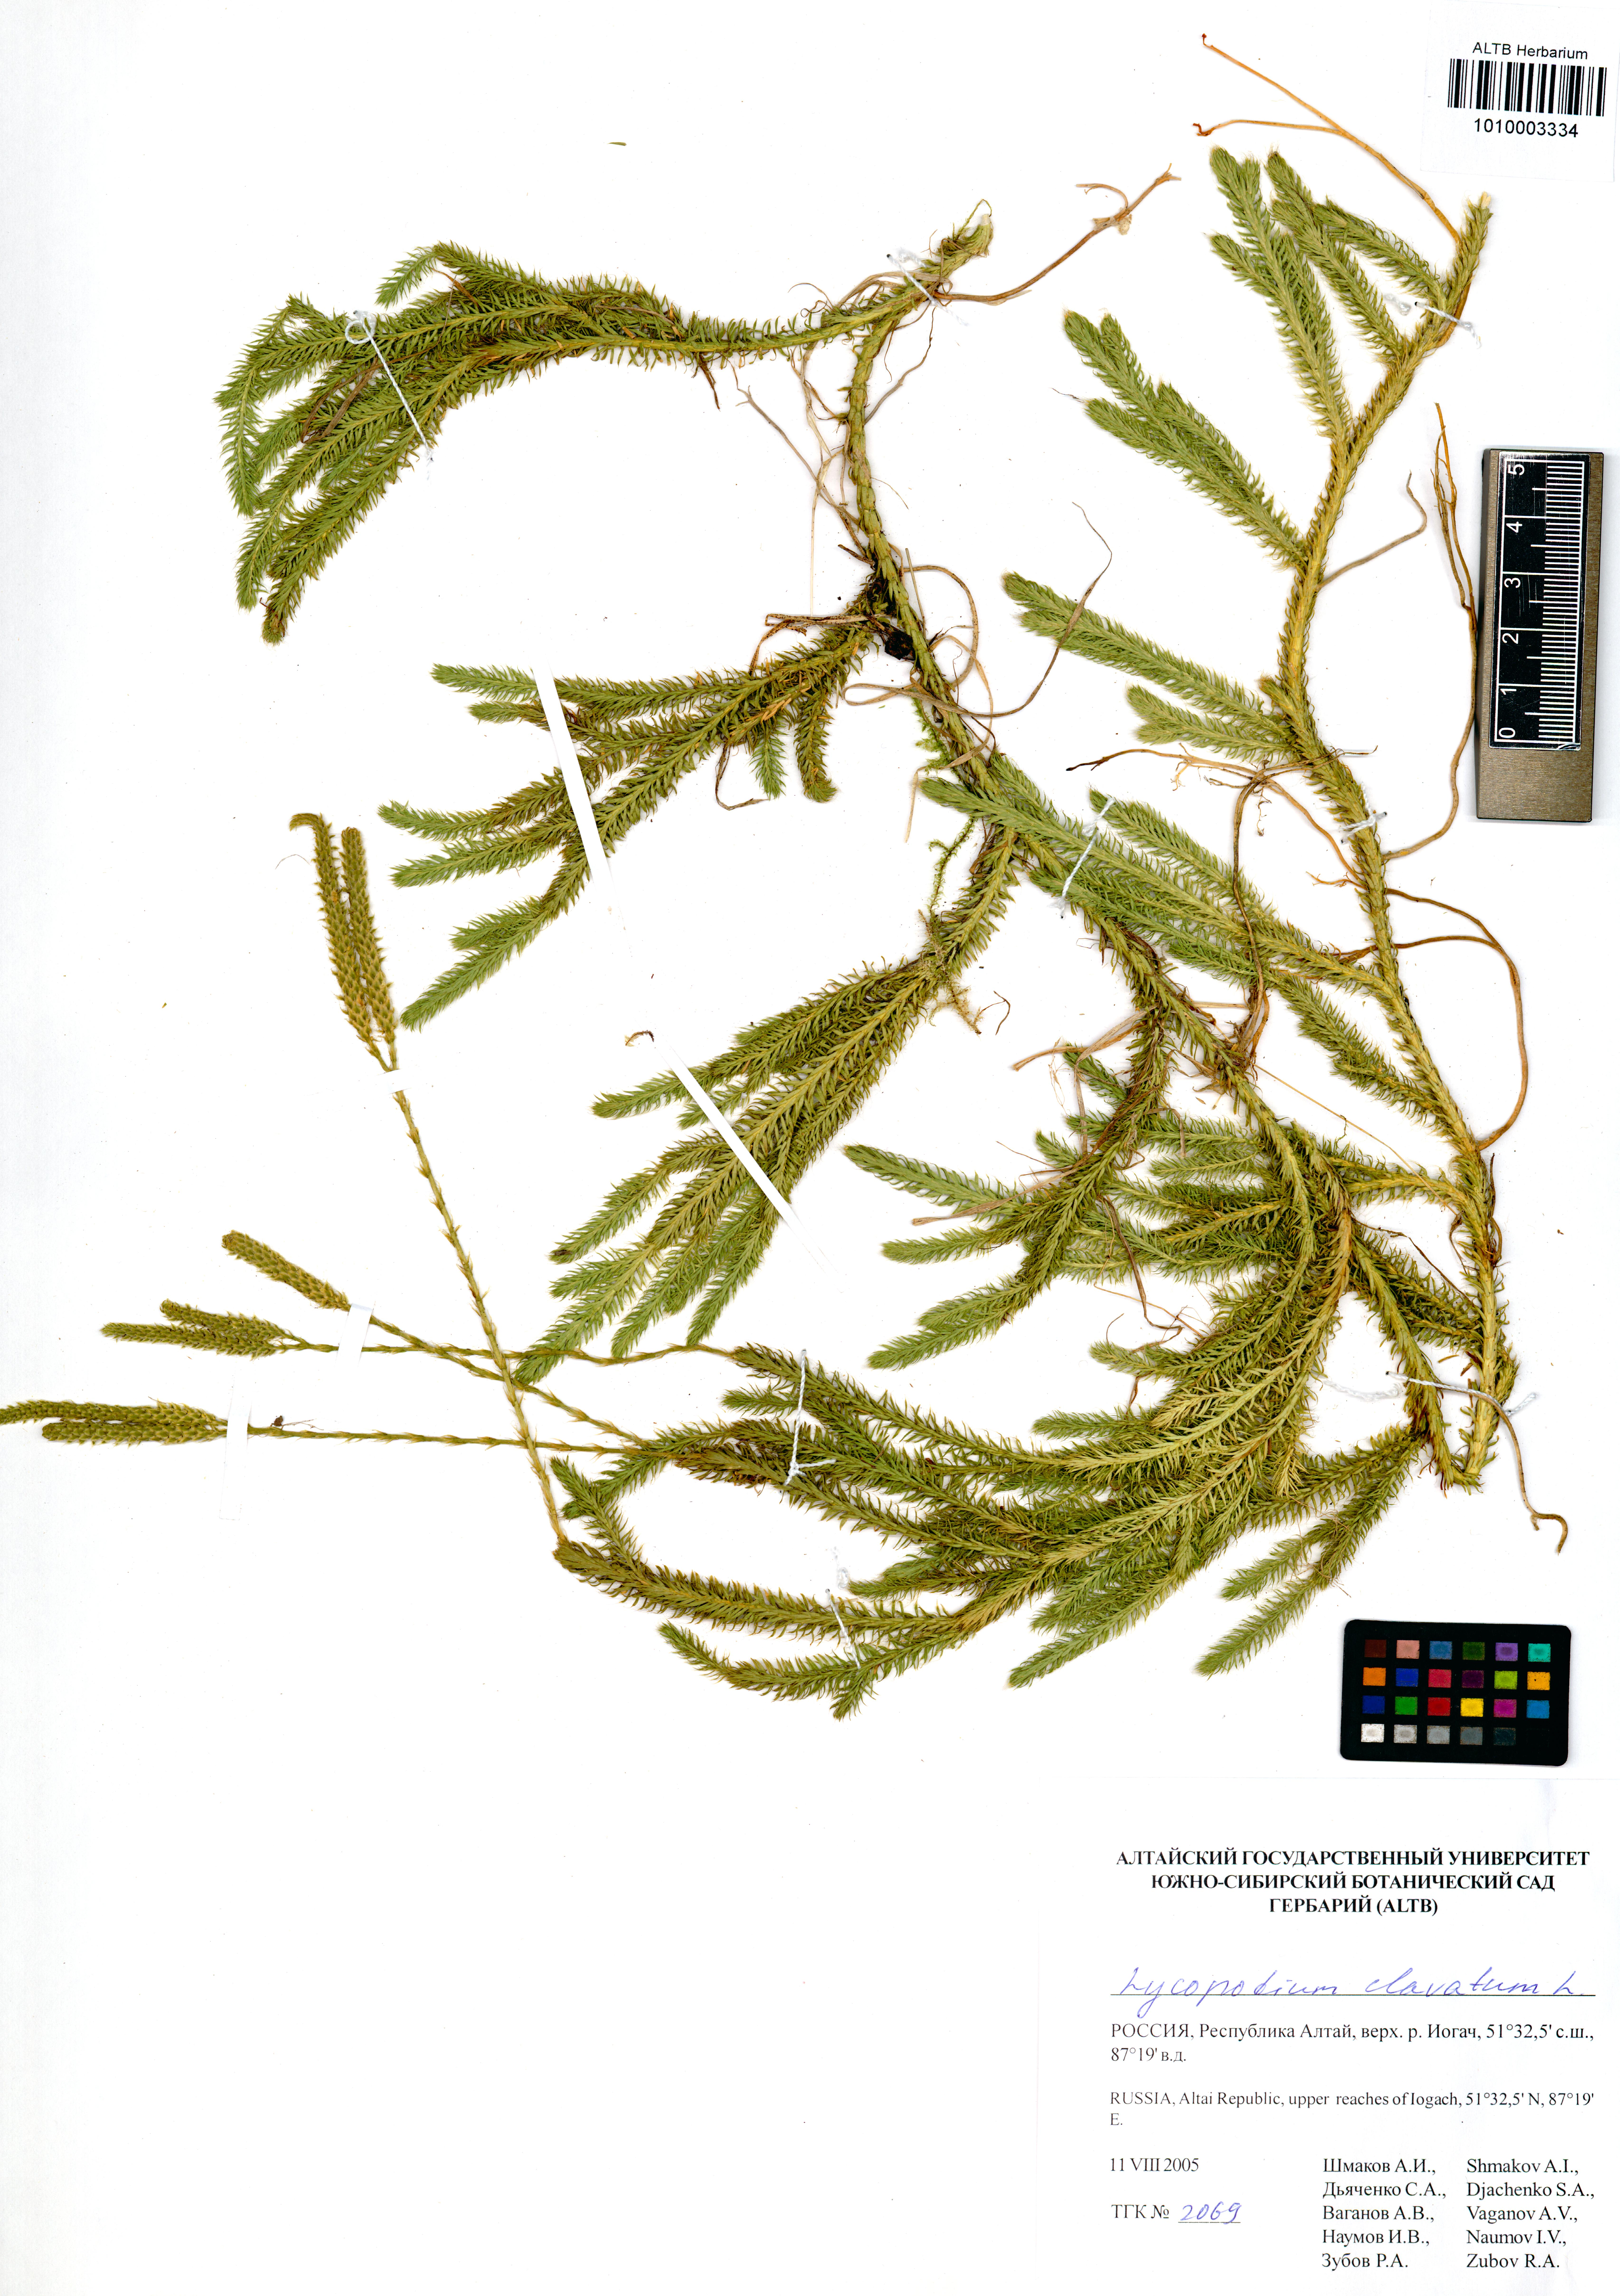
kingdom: Plantae
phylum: Tracheophyta
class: Lycopodiopsida
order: Lycopodiales
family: Lycopodiaceae
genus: Lycopodium
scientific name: Lycopodium clavatum
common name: Stag's-horn clubmoss
